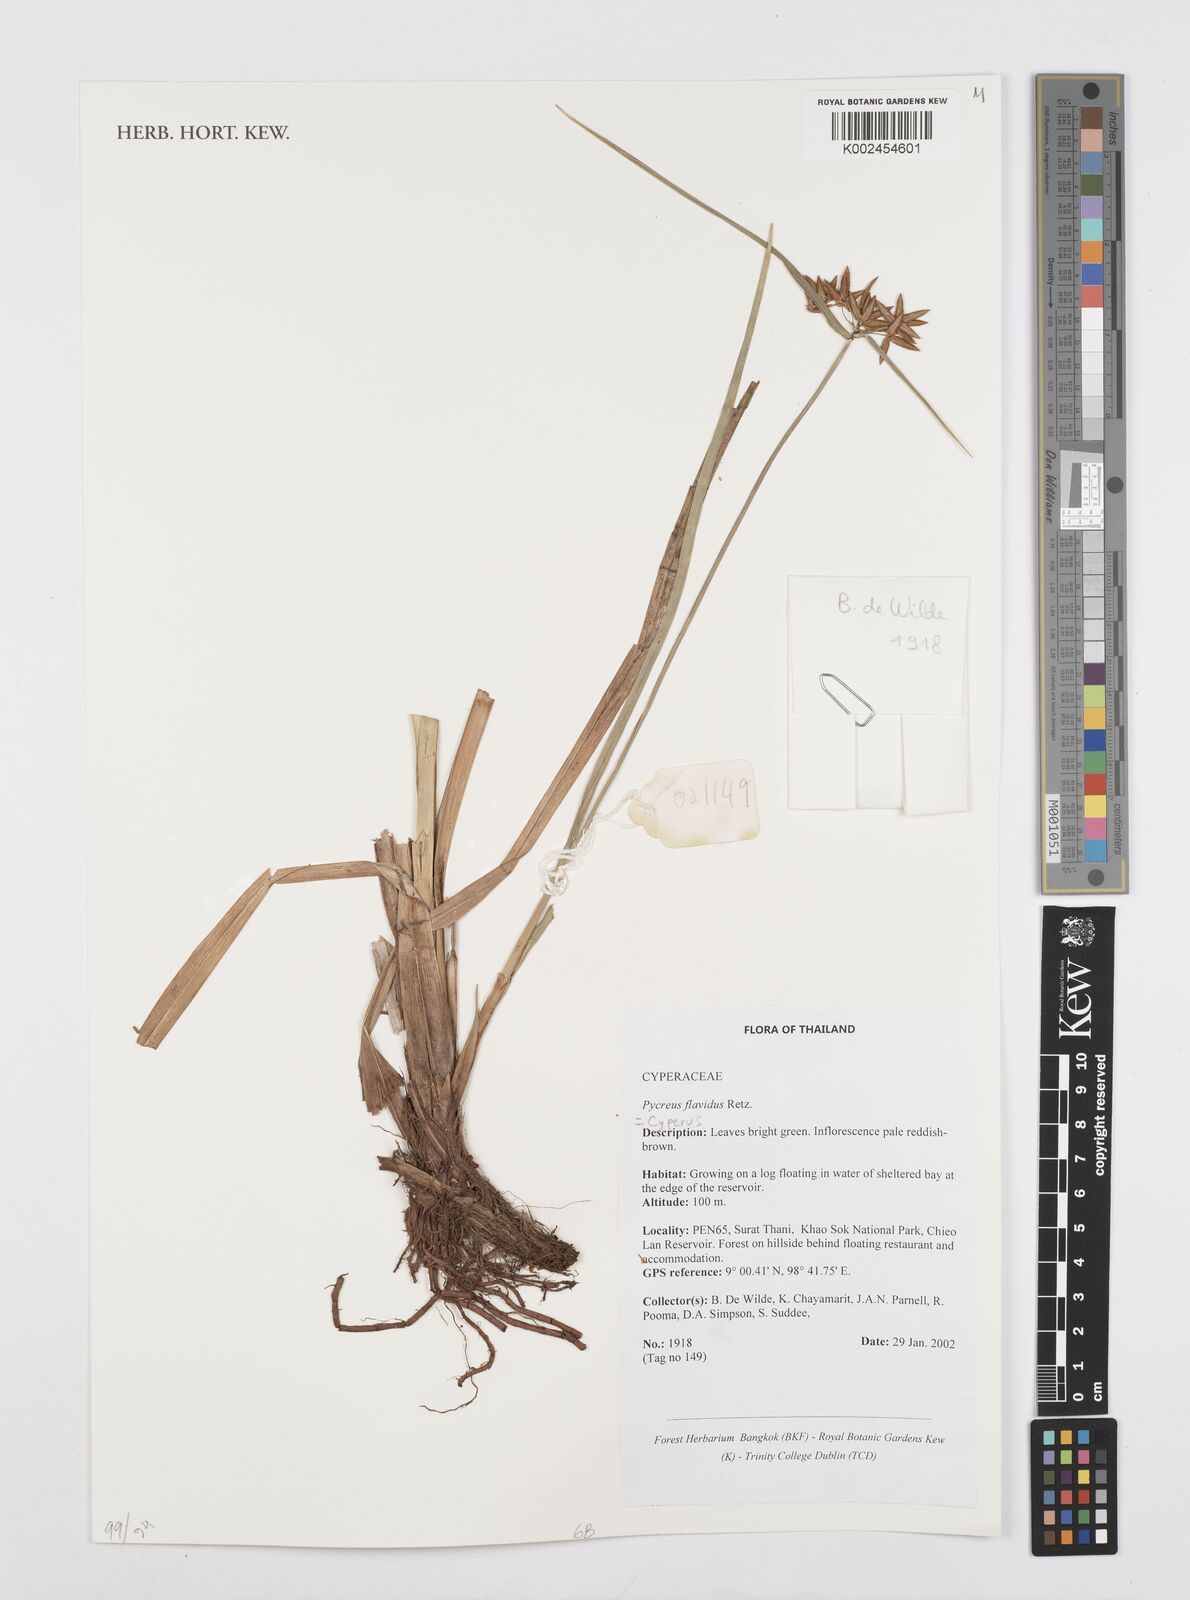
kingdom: Plantae
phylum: Tracheophyta
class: Liliopsida
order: Poales
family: Cyperaceae
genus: Cyperus
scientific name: Cyperus flavidus
